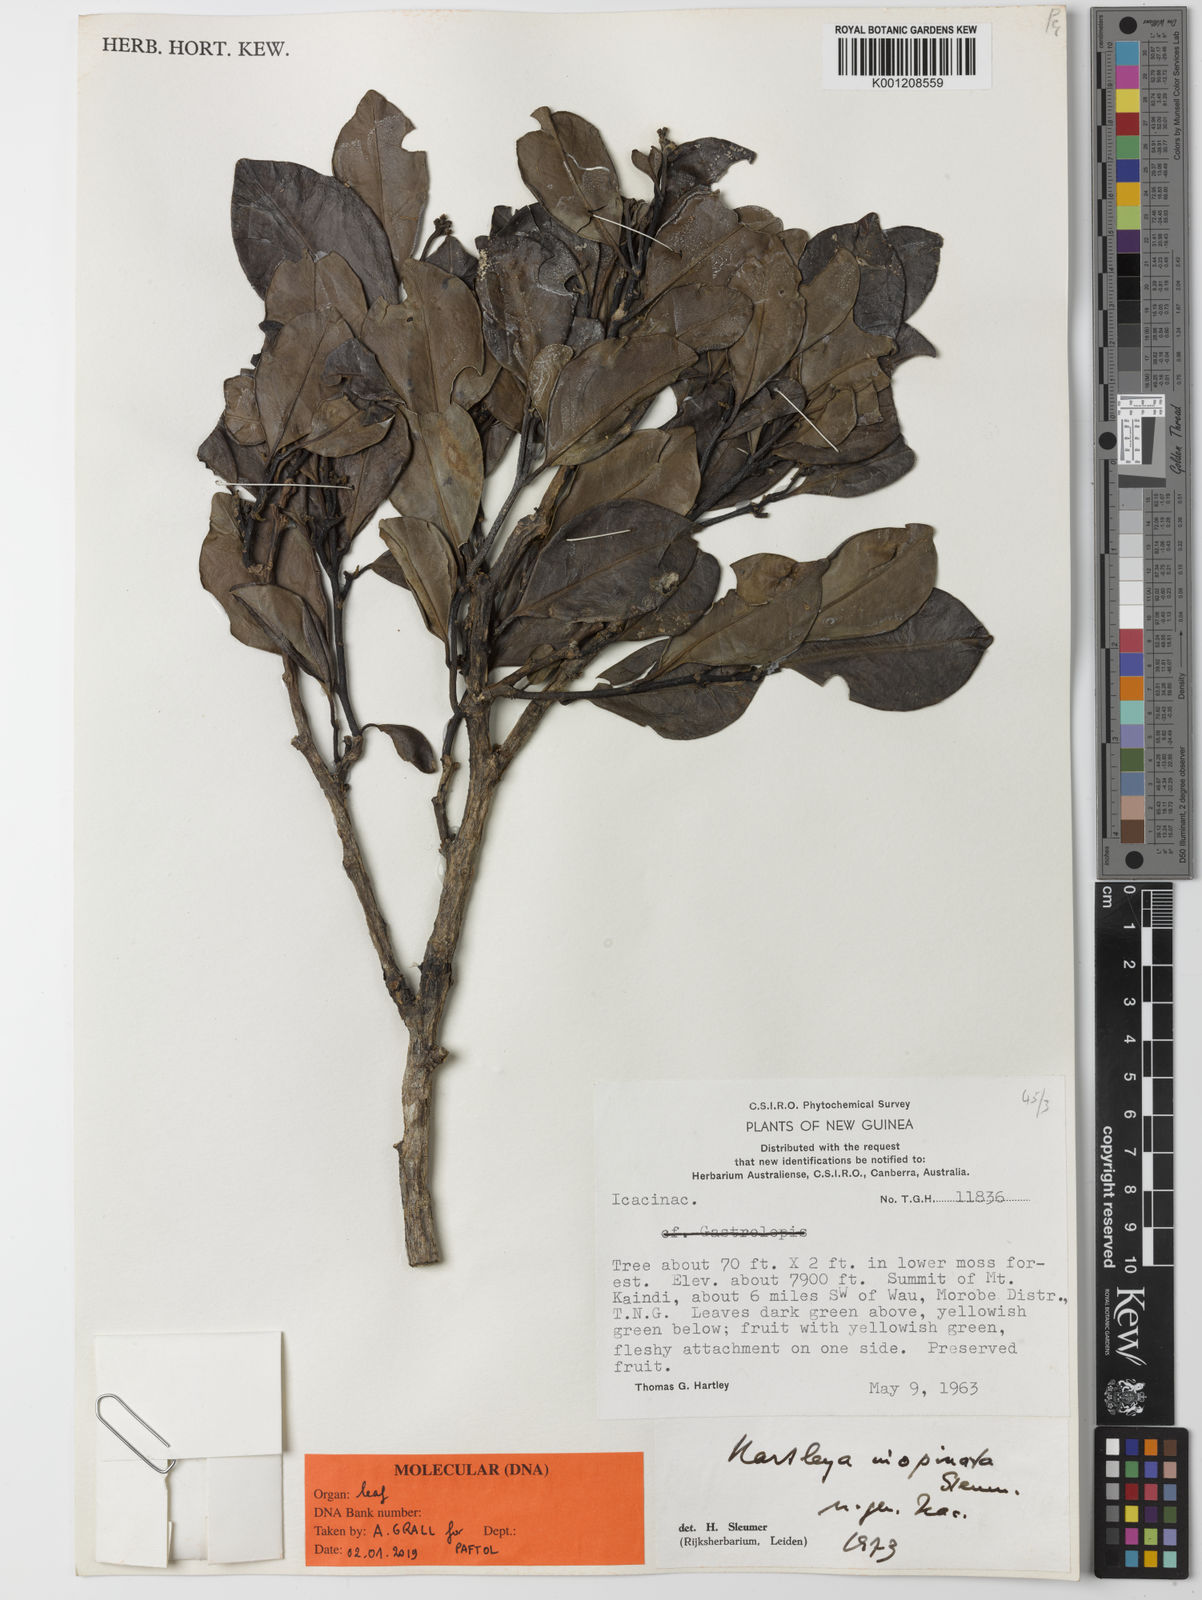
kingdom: Plantae
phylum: Tracheophyta
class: Magnoliopsida
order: Cardiopteridales
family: Stemonuraceae
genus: Hartleya
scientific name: Hartleya inopinata
